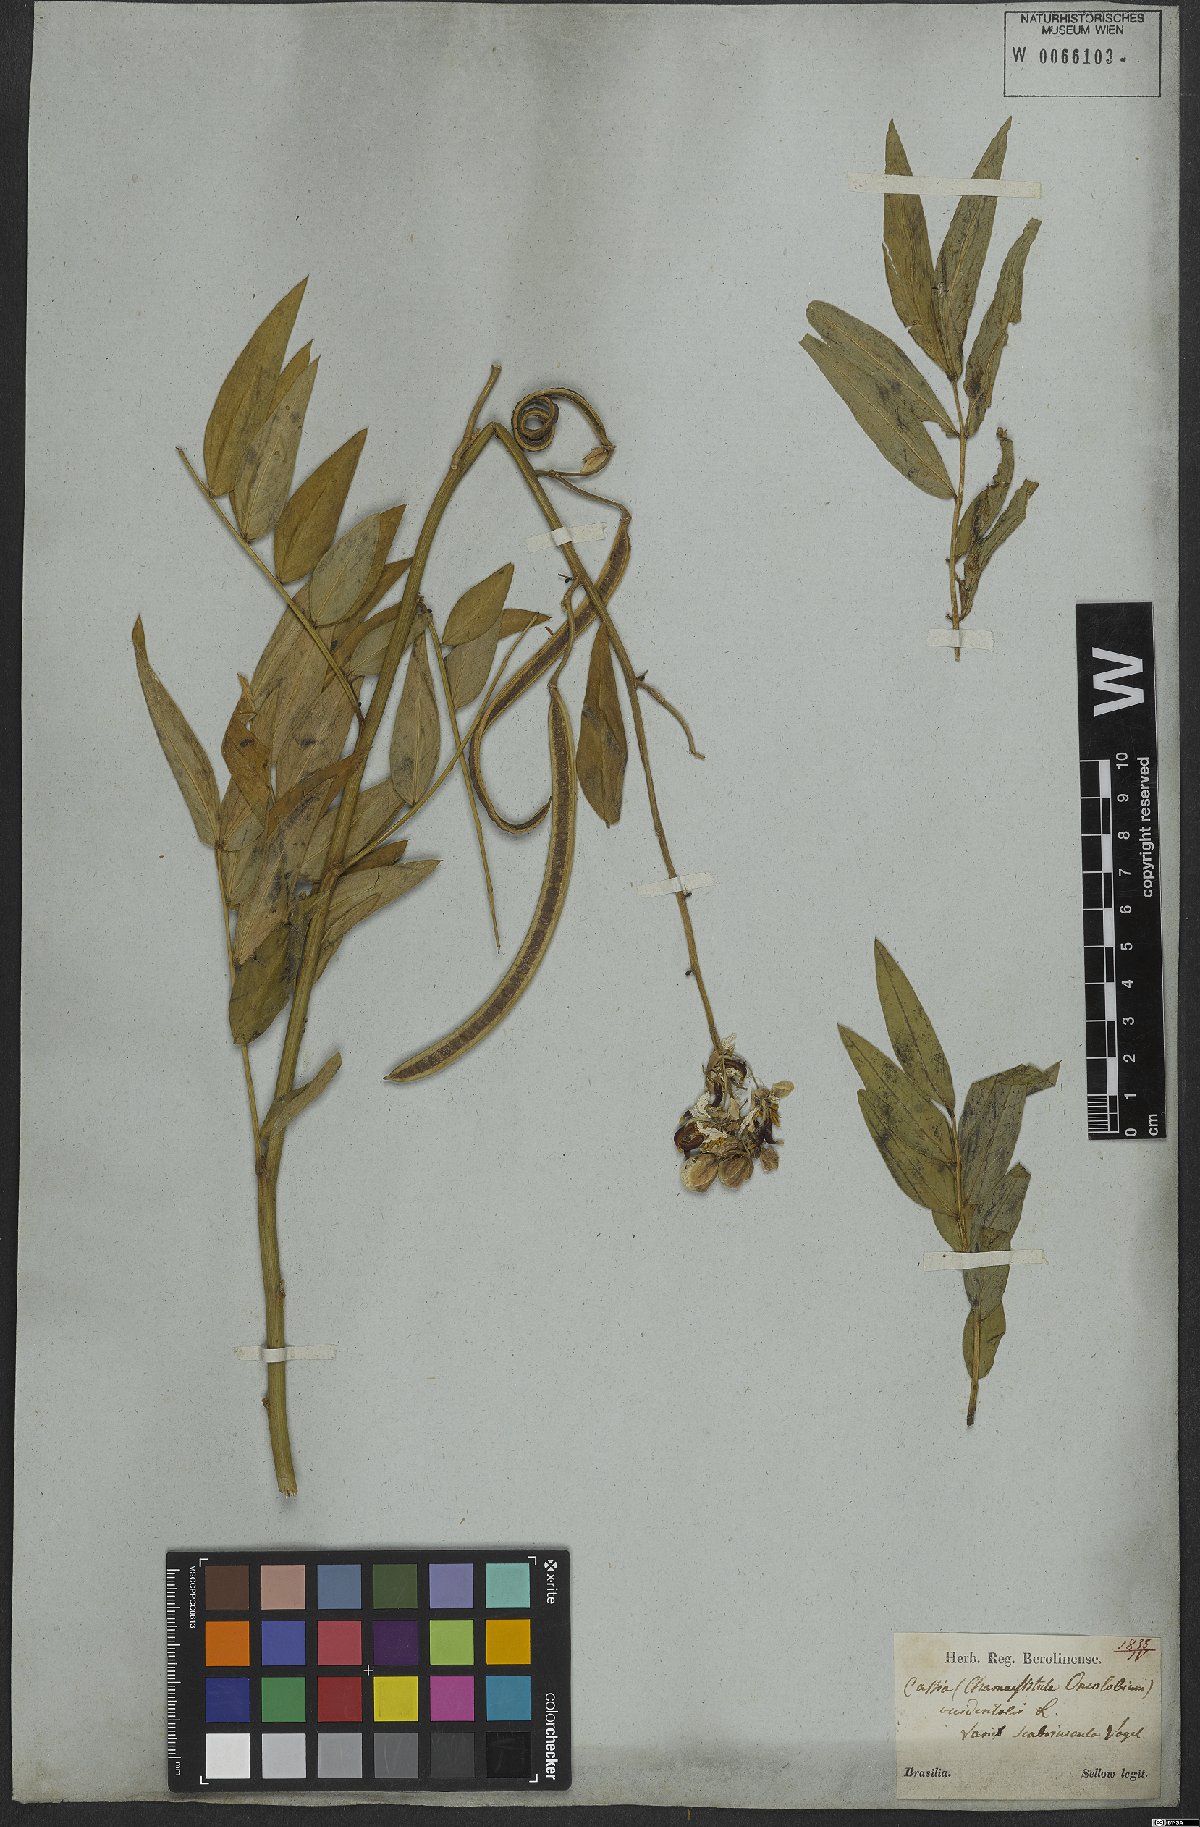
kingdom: Plantae
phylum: Tracheophyta
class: Magnoliopsida
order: Fabales
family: Fabaceae
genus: Senna
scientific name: Senna occidentalis
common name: Septicweed
